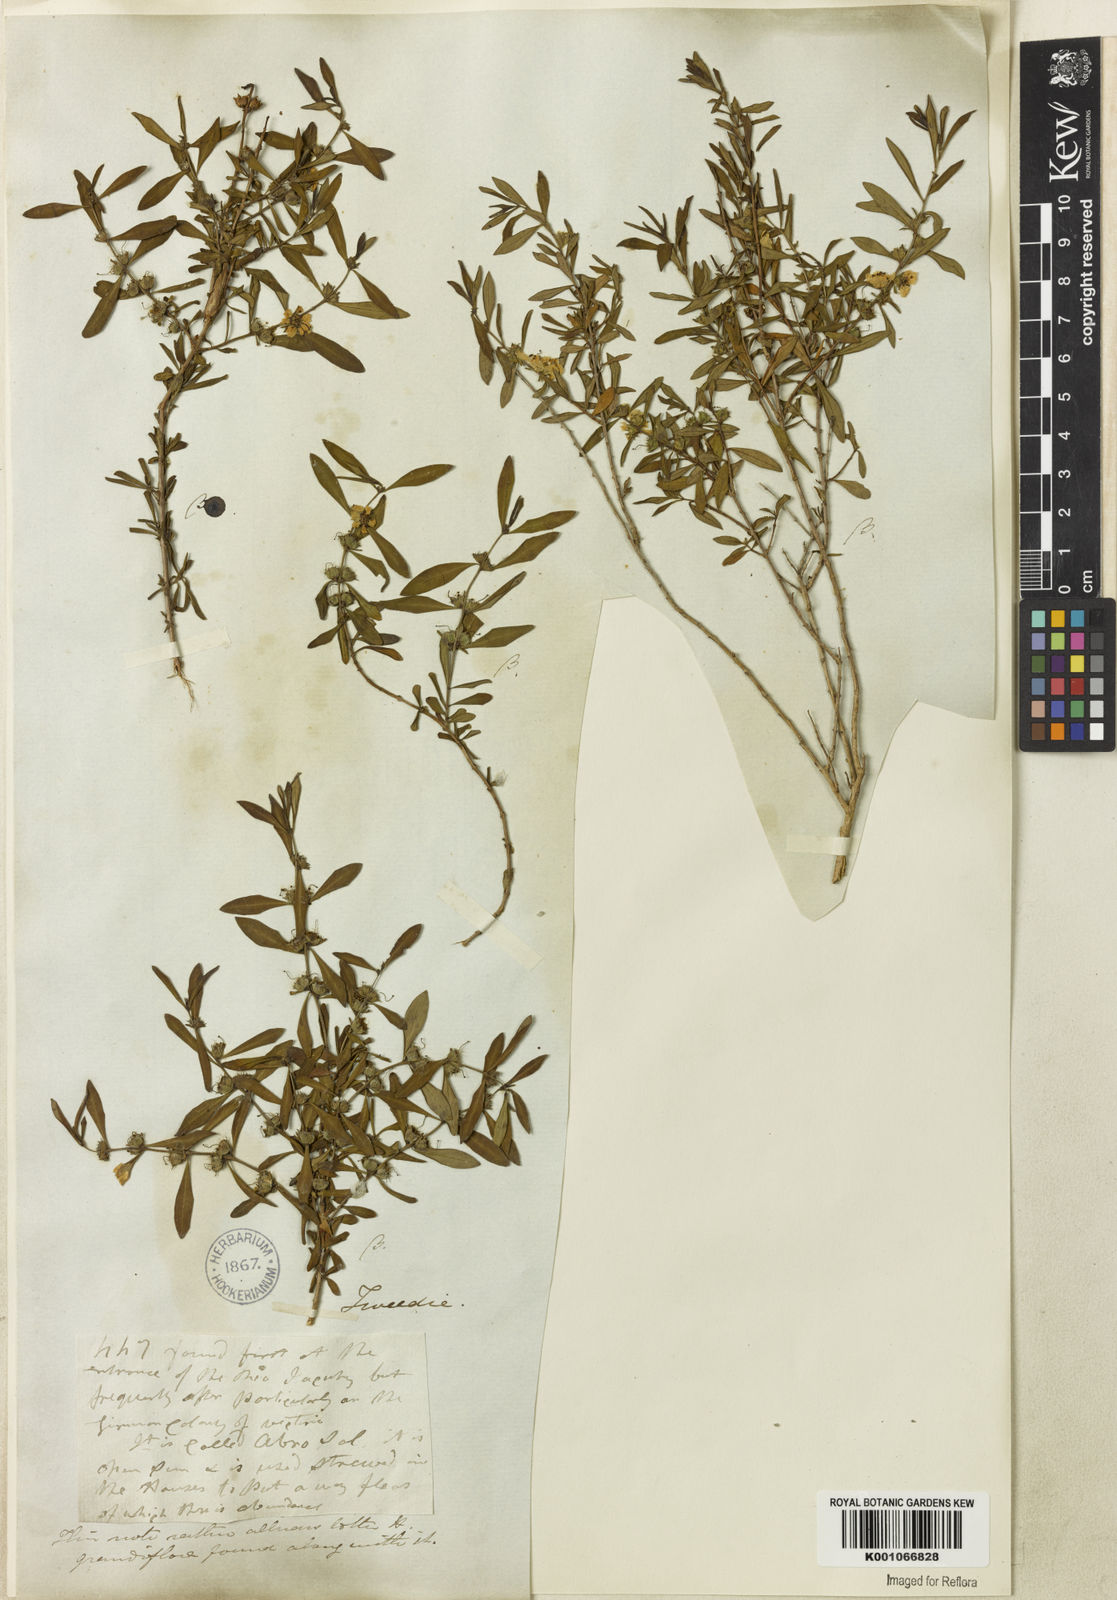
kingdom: Plantae
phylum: Tracheophyta
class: Magnoliopsida
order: Myrtales
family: Lythraceae
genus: Heimia
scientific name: Heimia apetala
